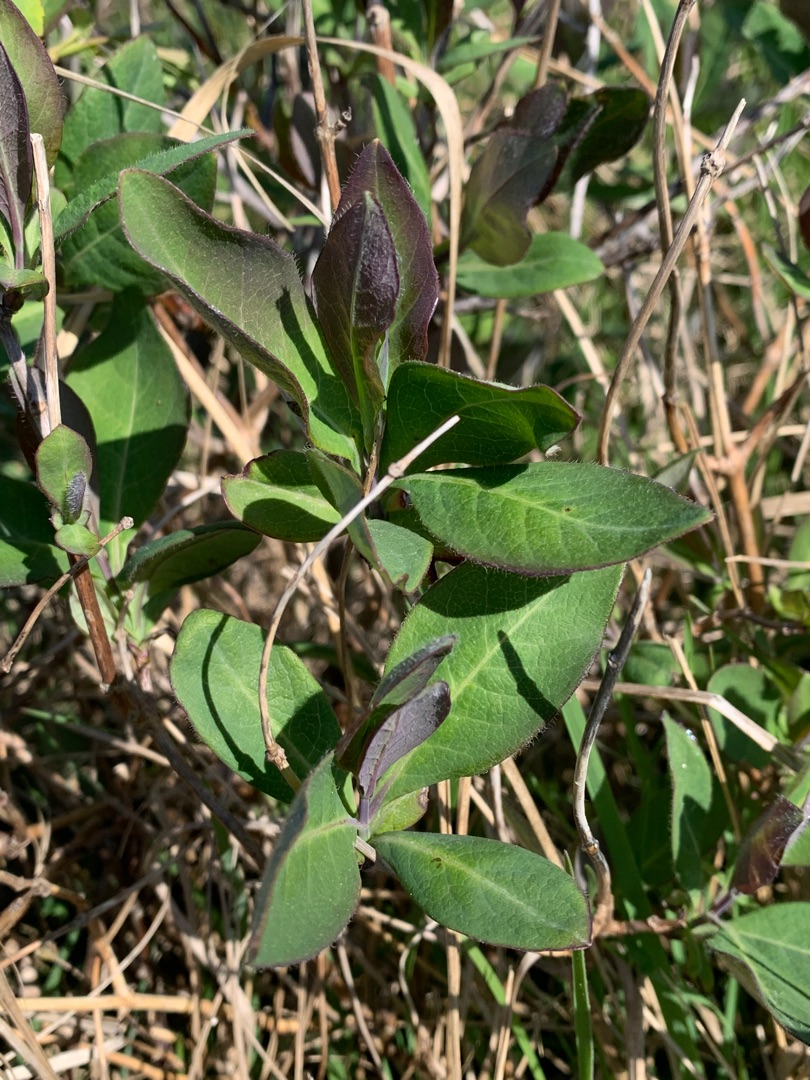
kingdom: Plantae
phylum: Tracheophyta
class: Magnoliopsida
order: Dipsacales
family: Caprifoliaceae
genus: Lonicera
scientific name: Lonicera periclymenum
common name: Almindelig gedeblad
